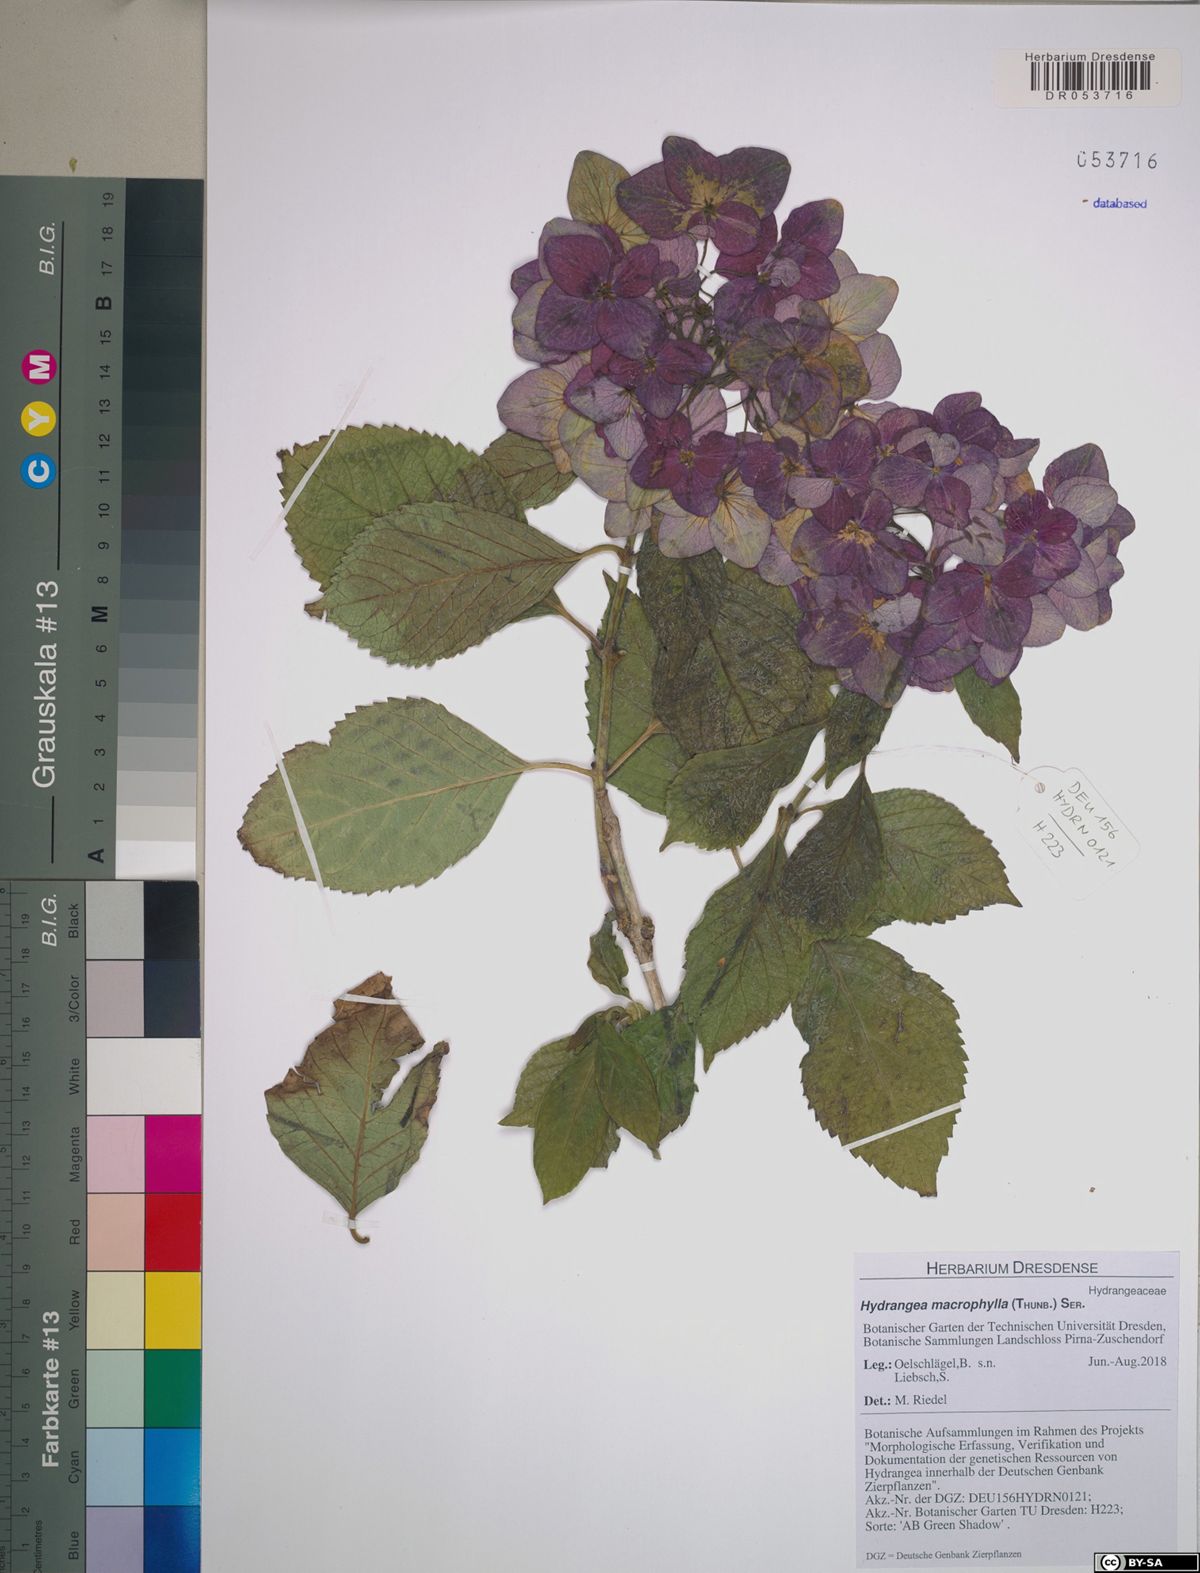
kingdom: Plantae
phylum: Tracheophyta
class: Magnoliopsida
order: Cornales
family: Hydrangeaceae
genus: Hydrangea
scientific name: Hydrangea macrophylla
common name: Hydrangea
